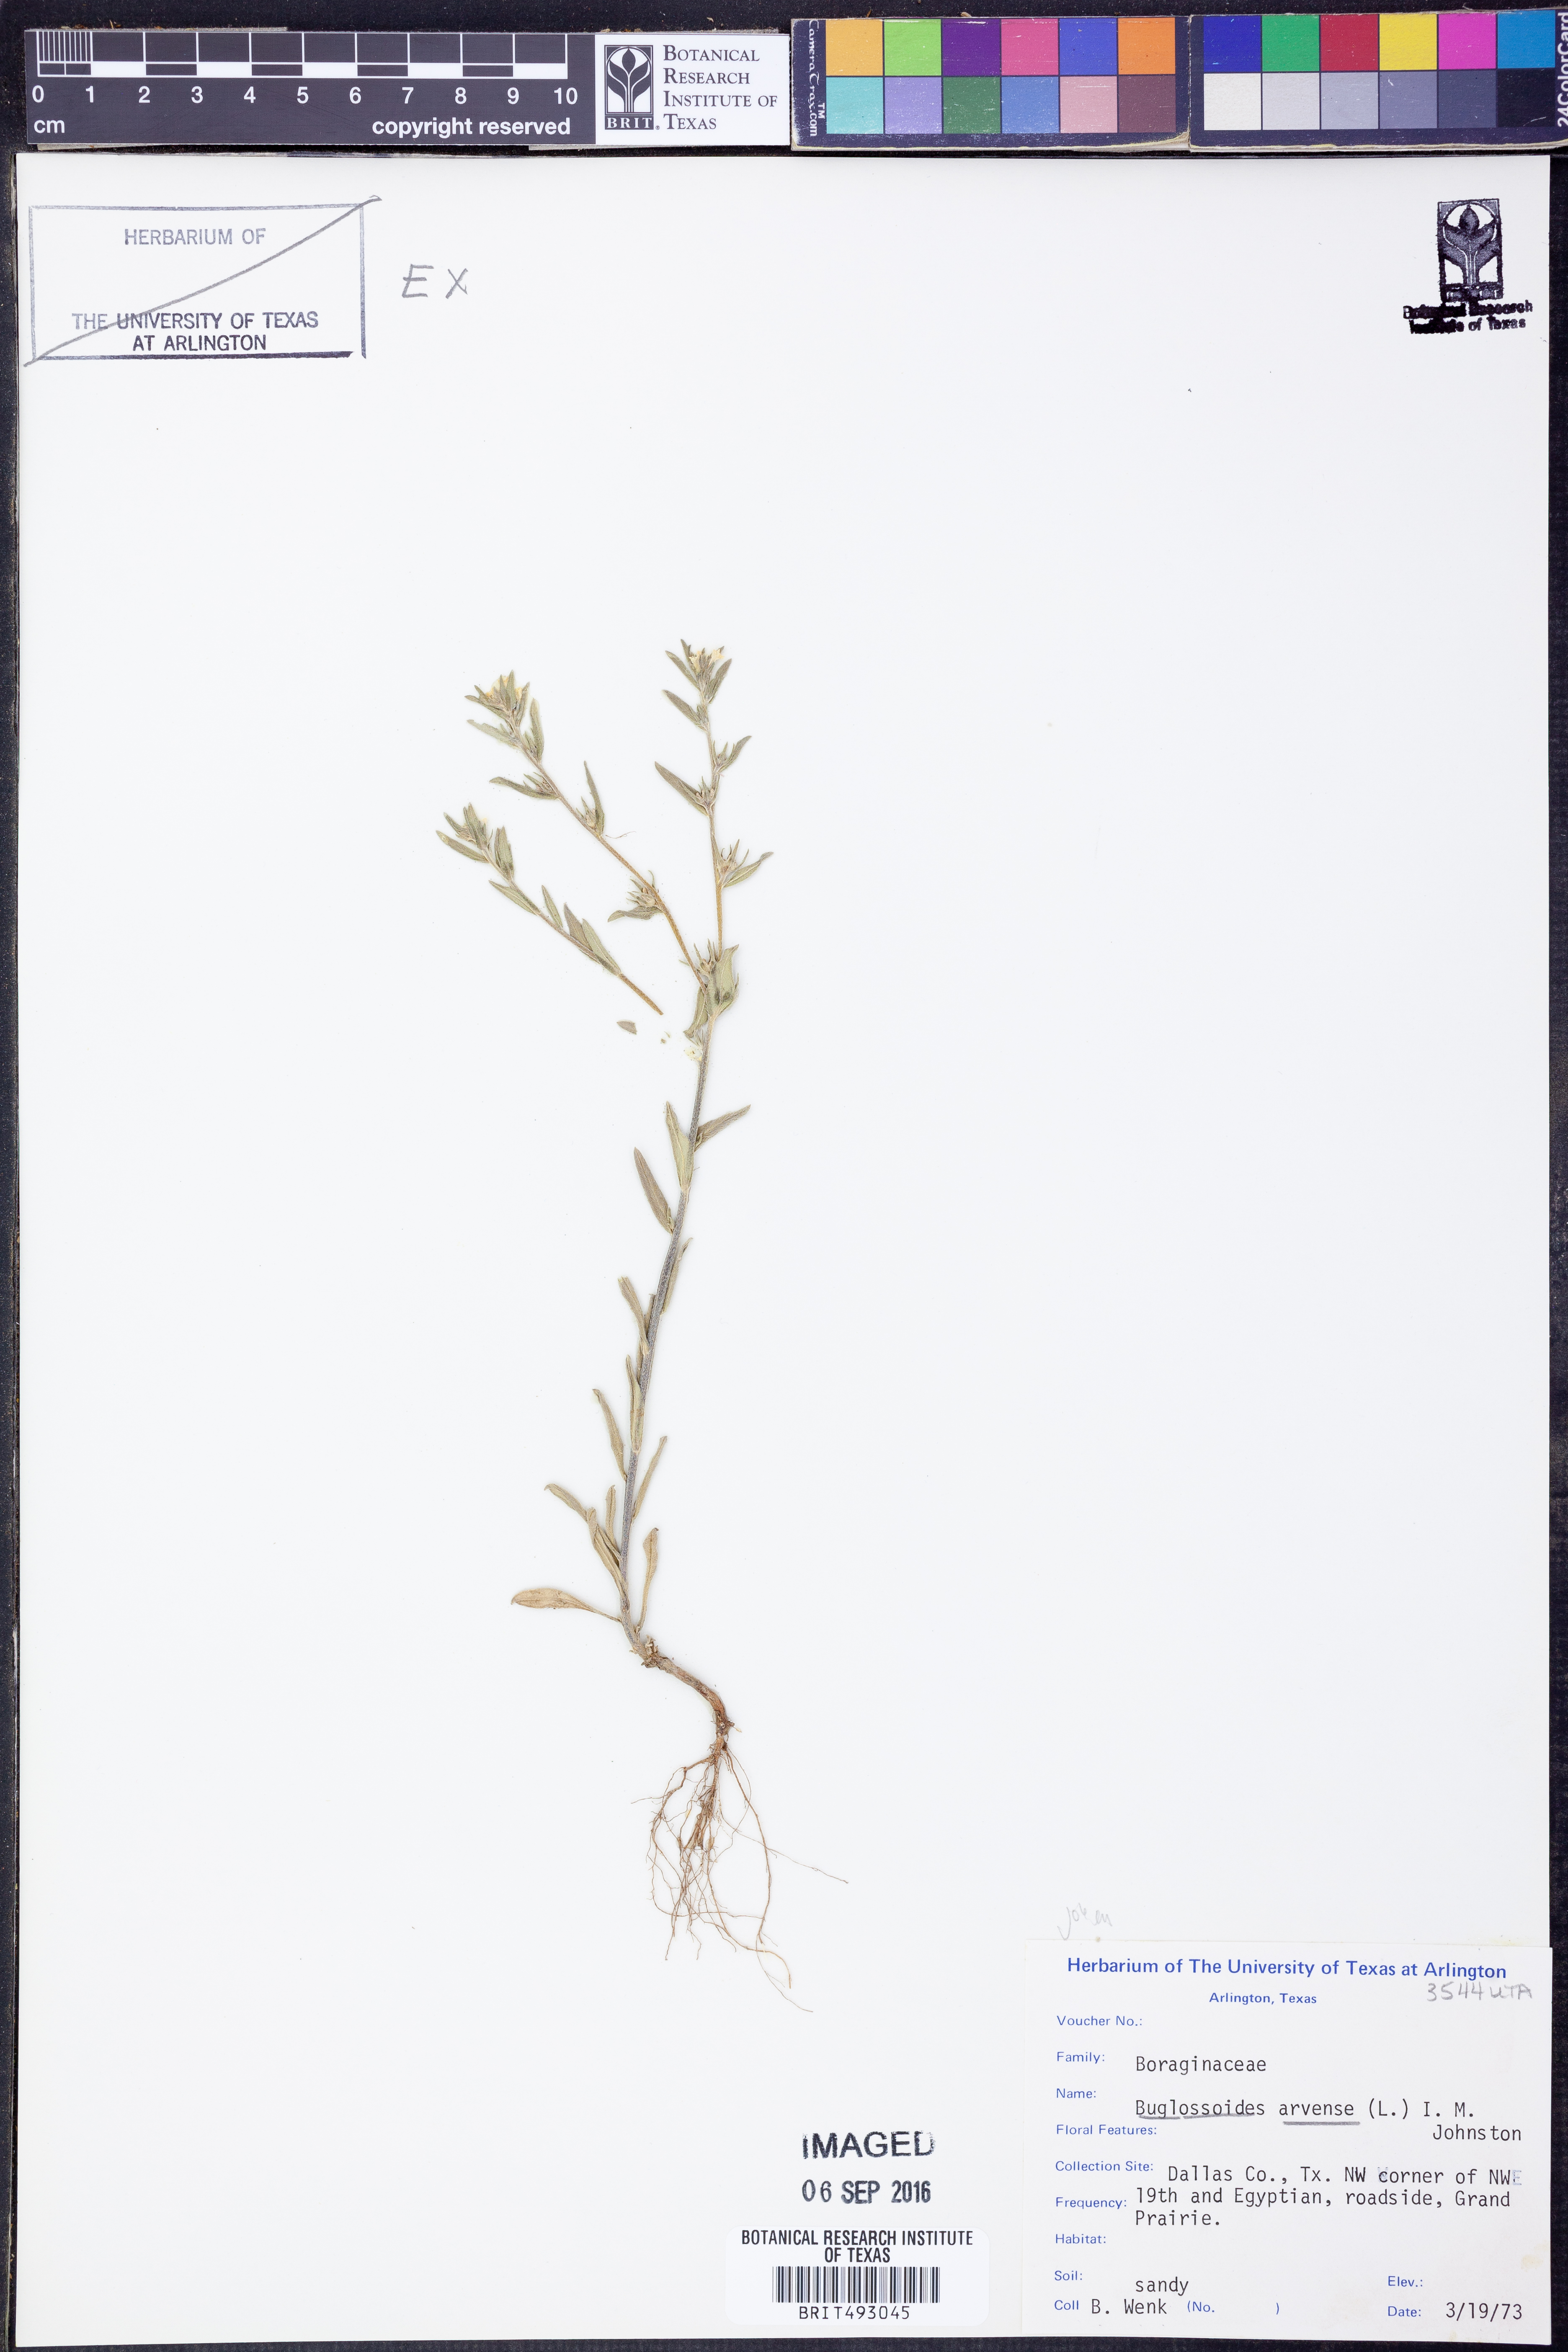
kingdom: Plantae
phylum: Tracheophyta
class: Magnoliopsida
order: Boraginales
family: Boraginaceae
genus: Buglossoides
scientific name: Buglossoides arvensis
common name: Corn gromwell
